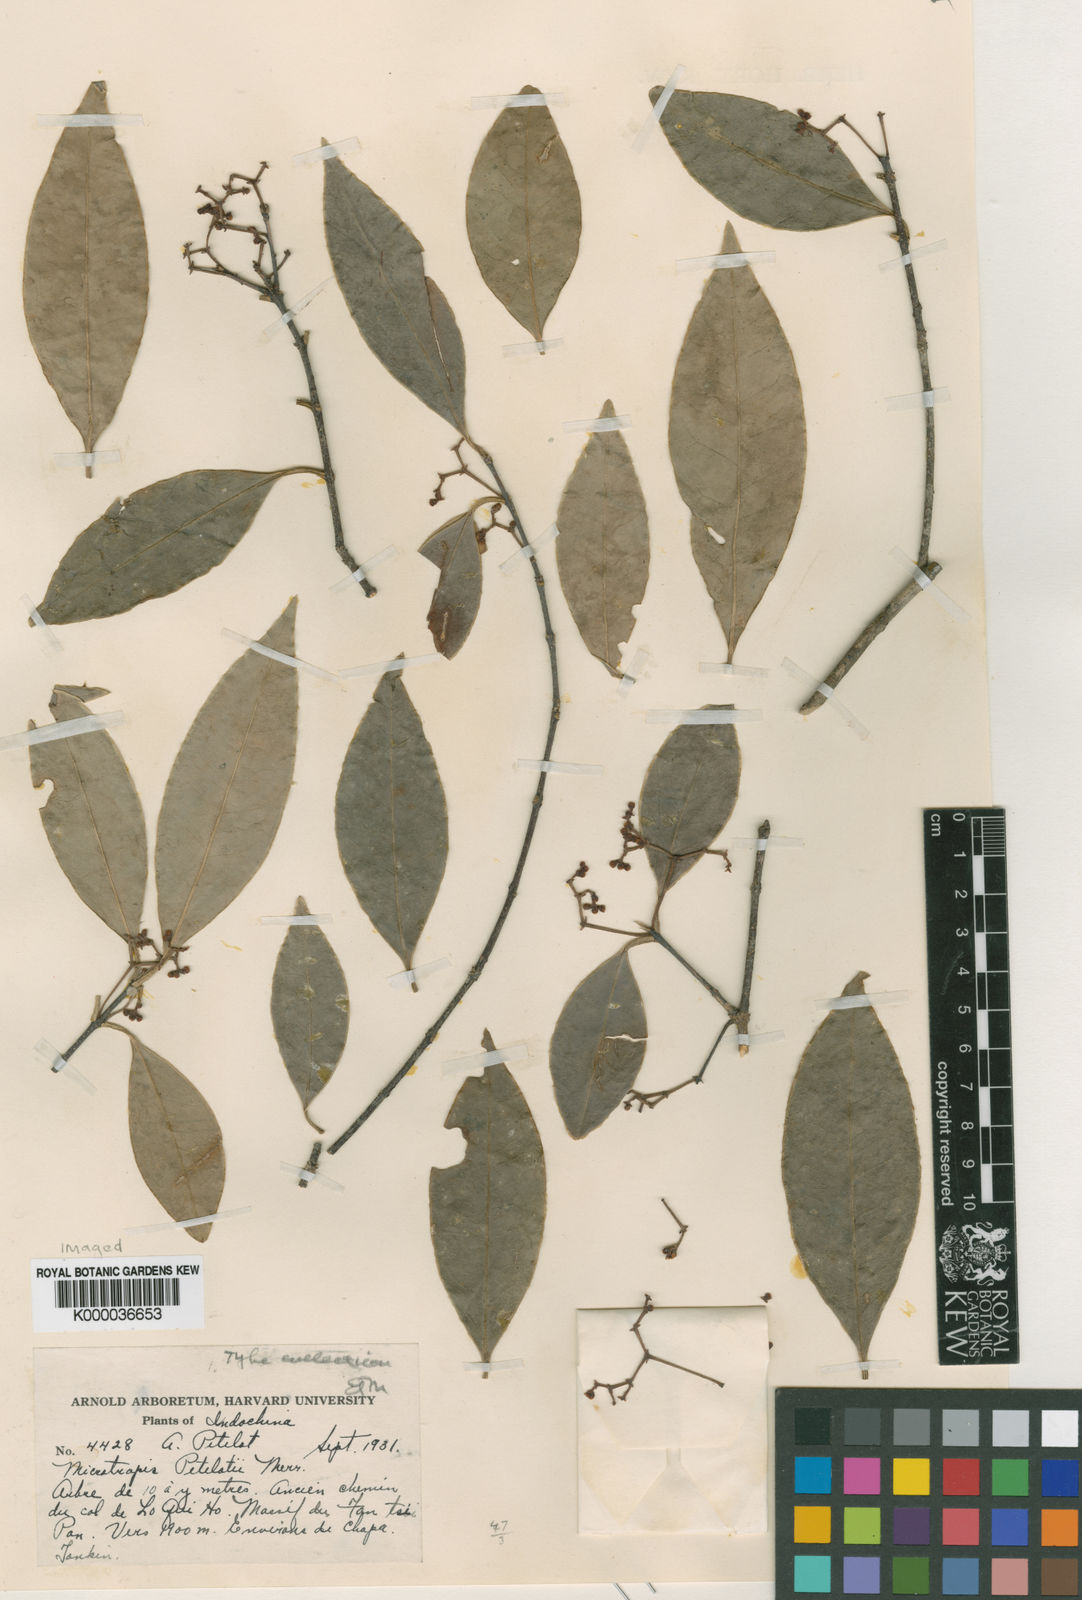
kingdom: Plantae
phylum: Tracheophyta
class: Magnoliopsida
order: Celastrales
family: Celastraceae
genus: Microtropis
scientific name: Microtropis petelotii
